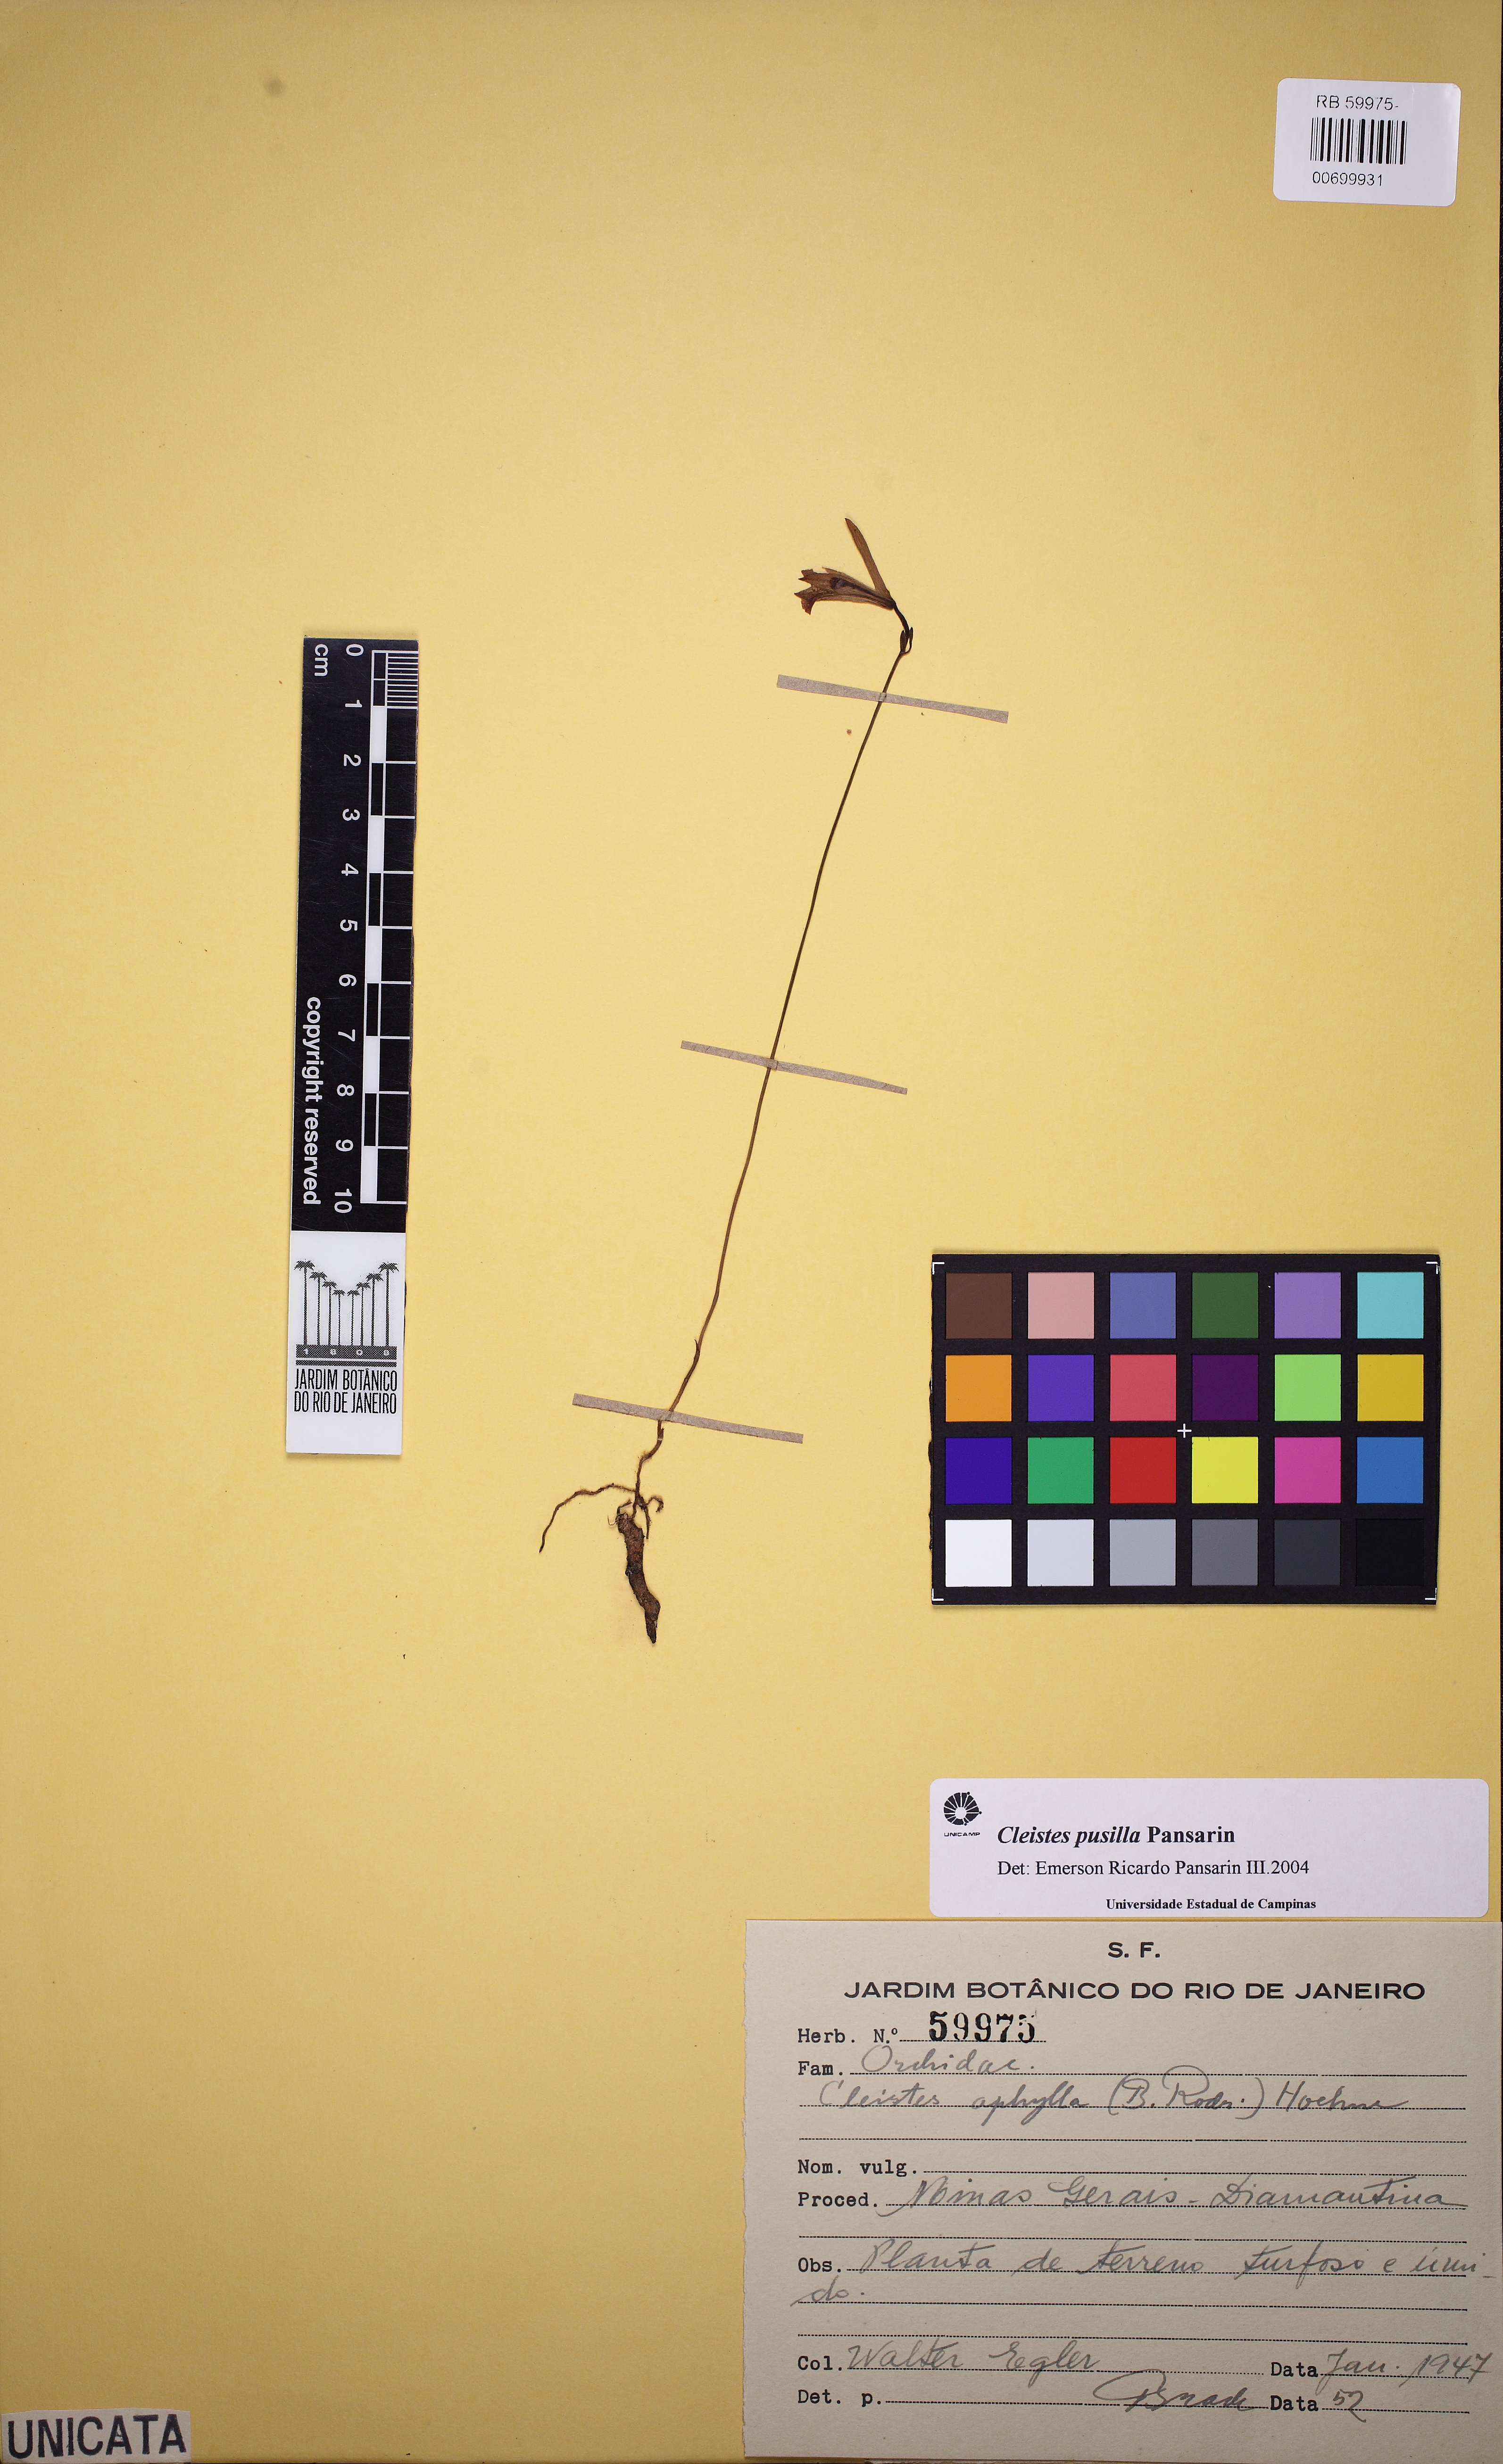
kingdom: Plantae
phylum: Tracheophyta
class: Liliopsida
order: Asparagales
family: Orchidaceae
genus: Cleistes
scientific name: Cleistes pusilla
